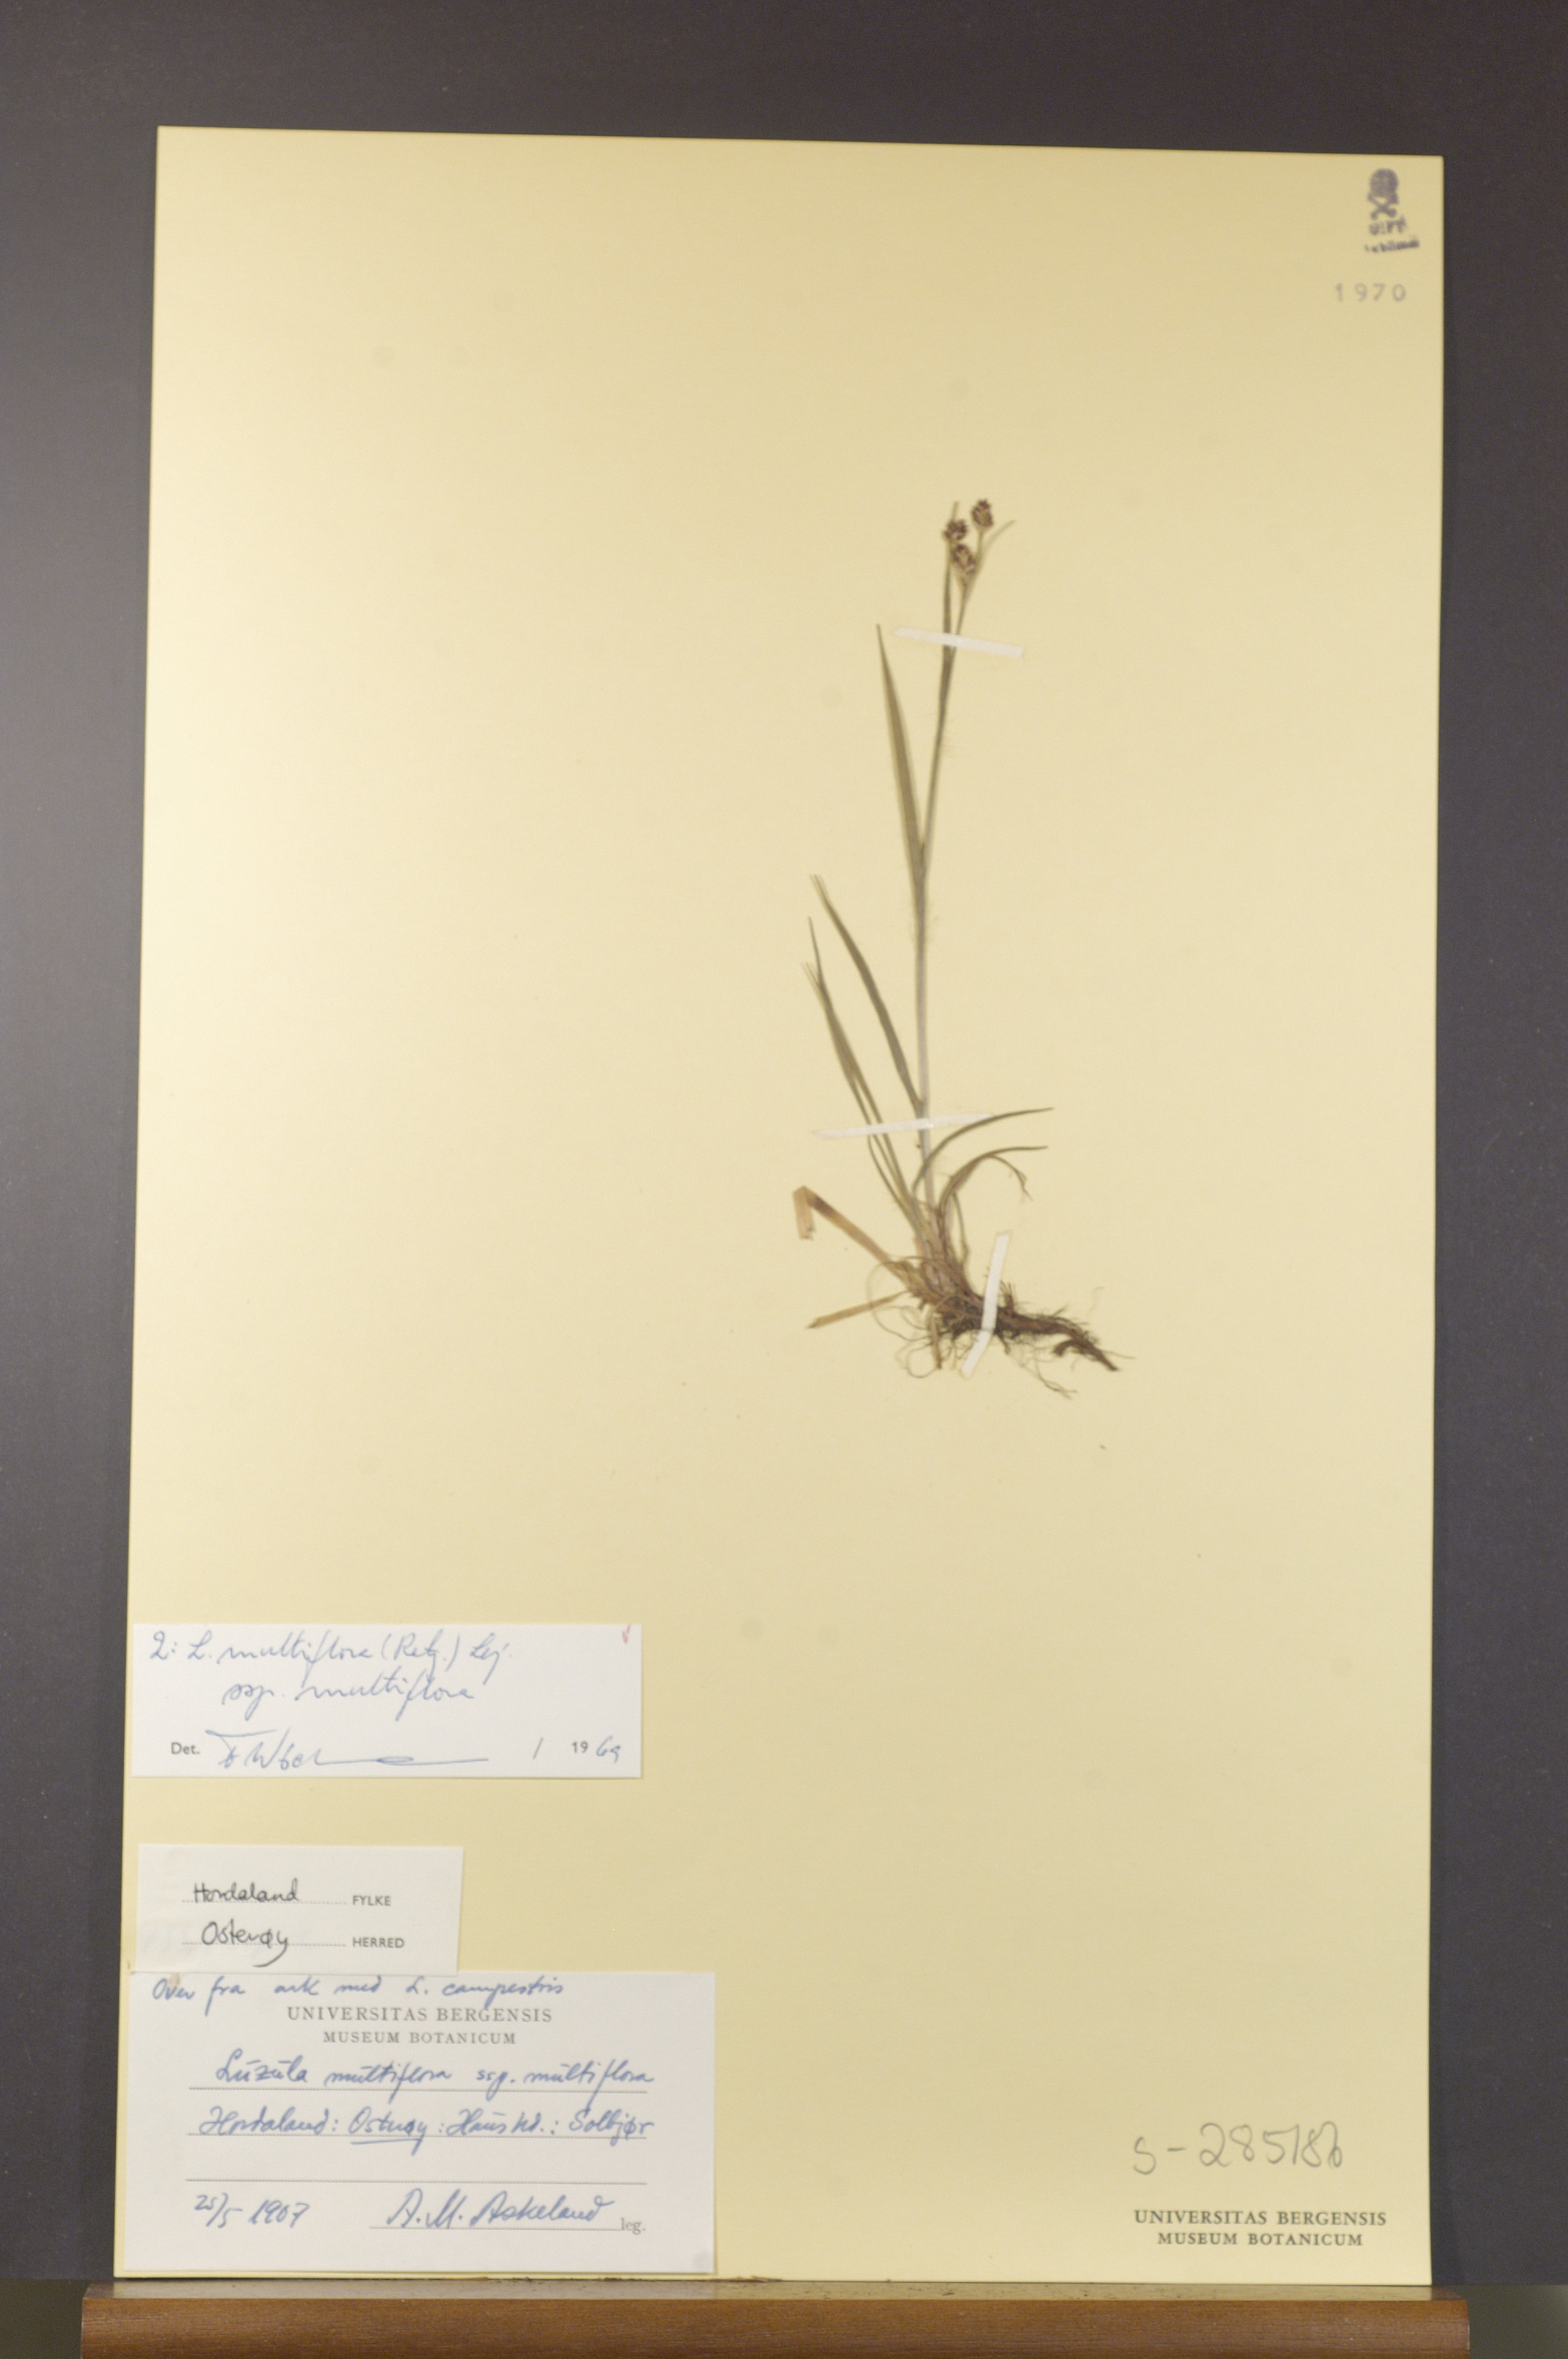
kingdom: Plantae
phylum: Tracheophyta
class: Liliopsida
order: Poales
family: Juncaceae
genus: Luzula
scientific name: Luzula multiflora
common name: Heath wood-rush
